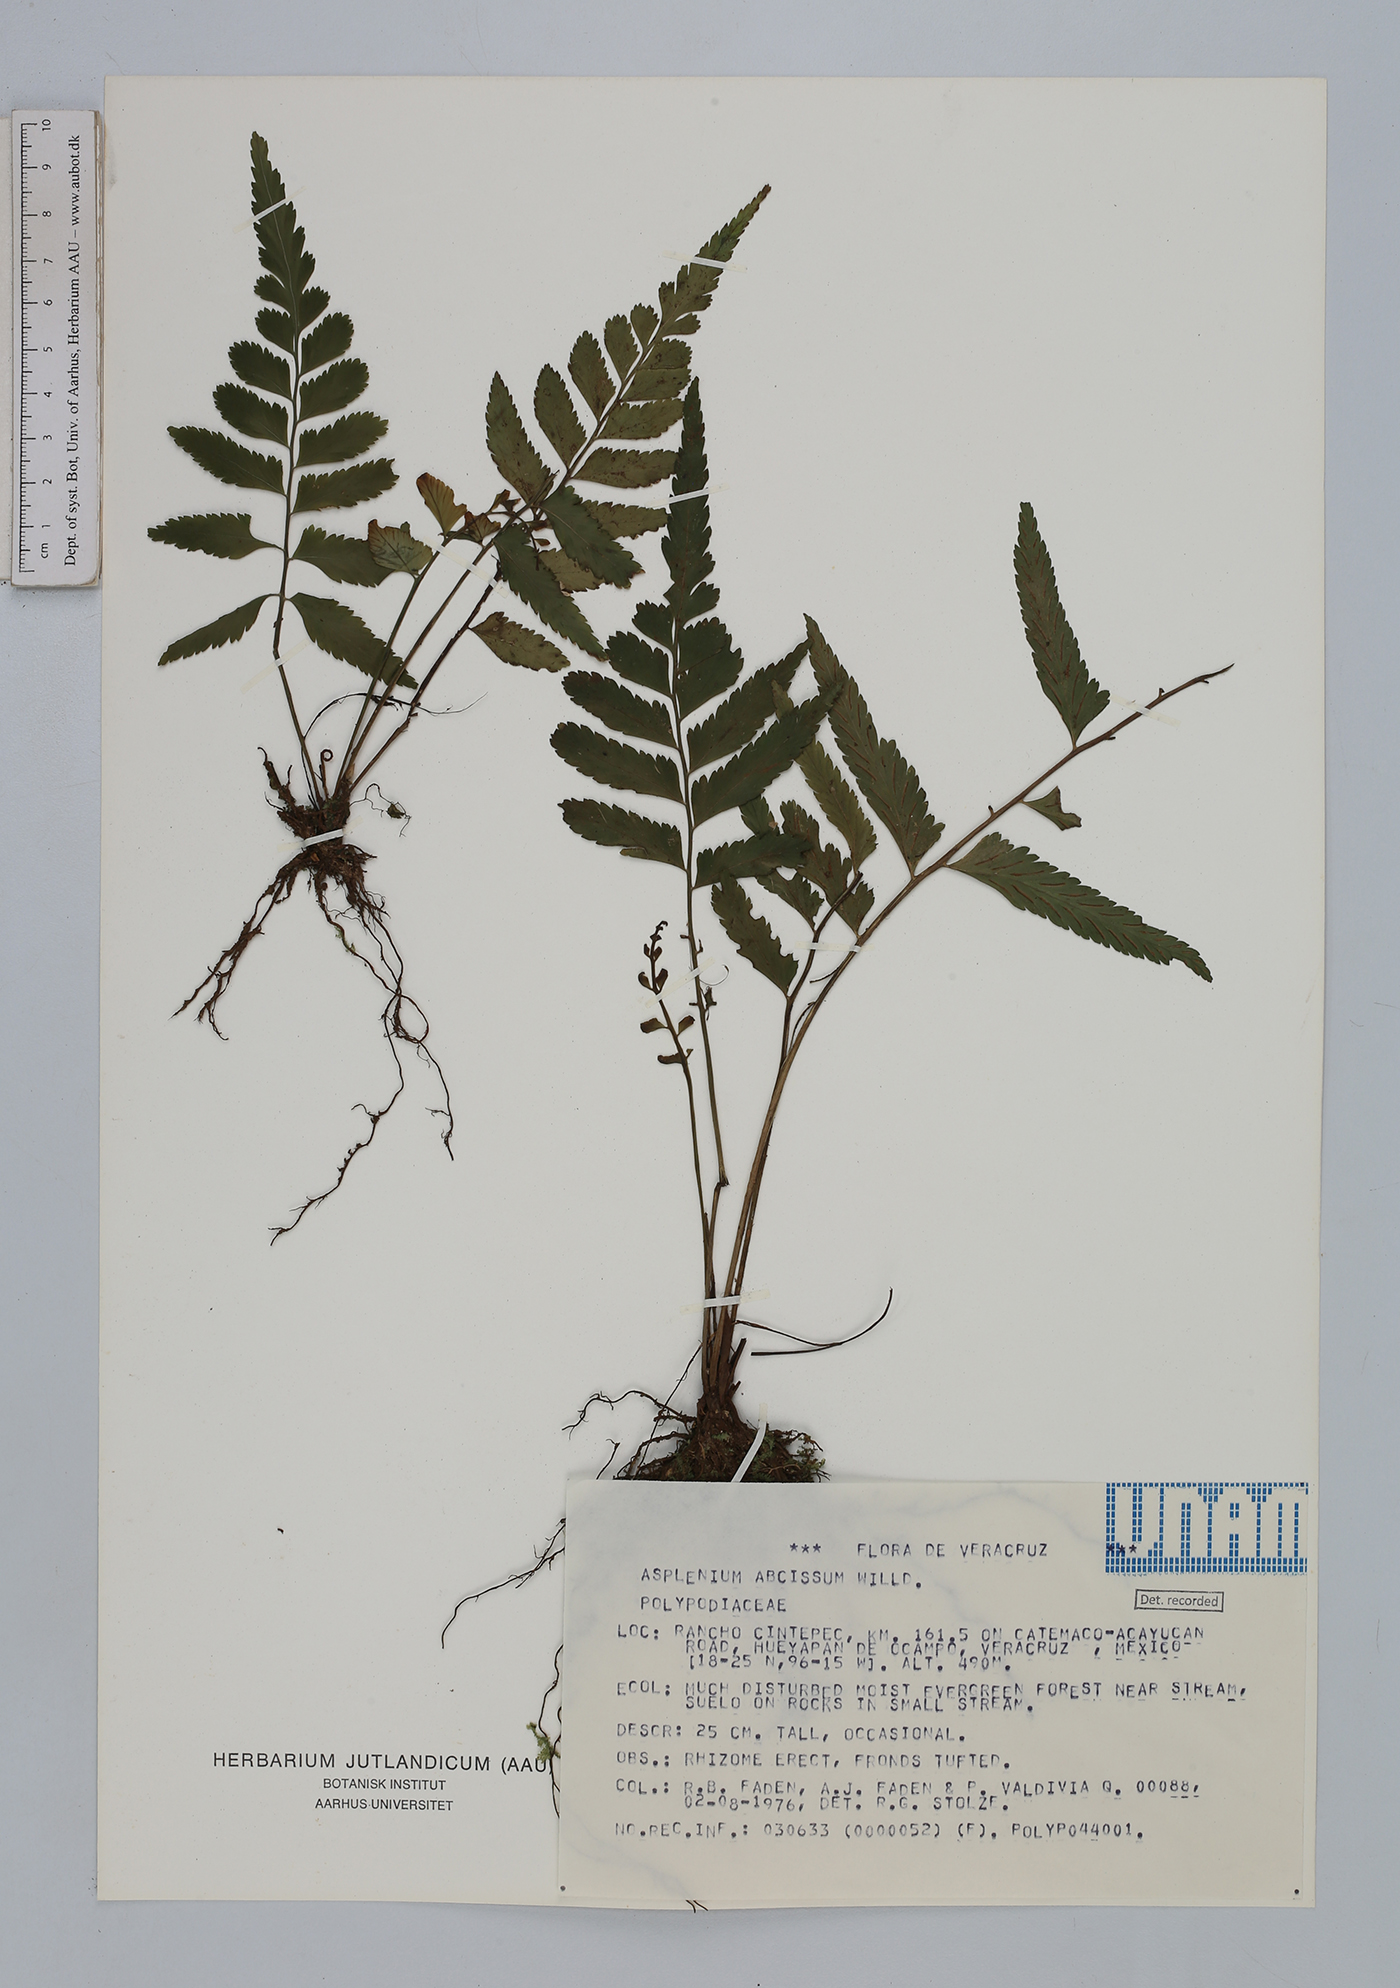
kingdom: Plantae
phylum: Tracheophyta
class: Polypodiopsida
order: Polypodiales
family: Aspleniaceae
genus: Asplenium
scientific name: Asplenium abscissum
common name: Cutleaf spleenwort
